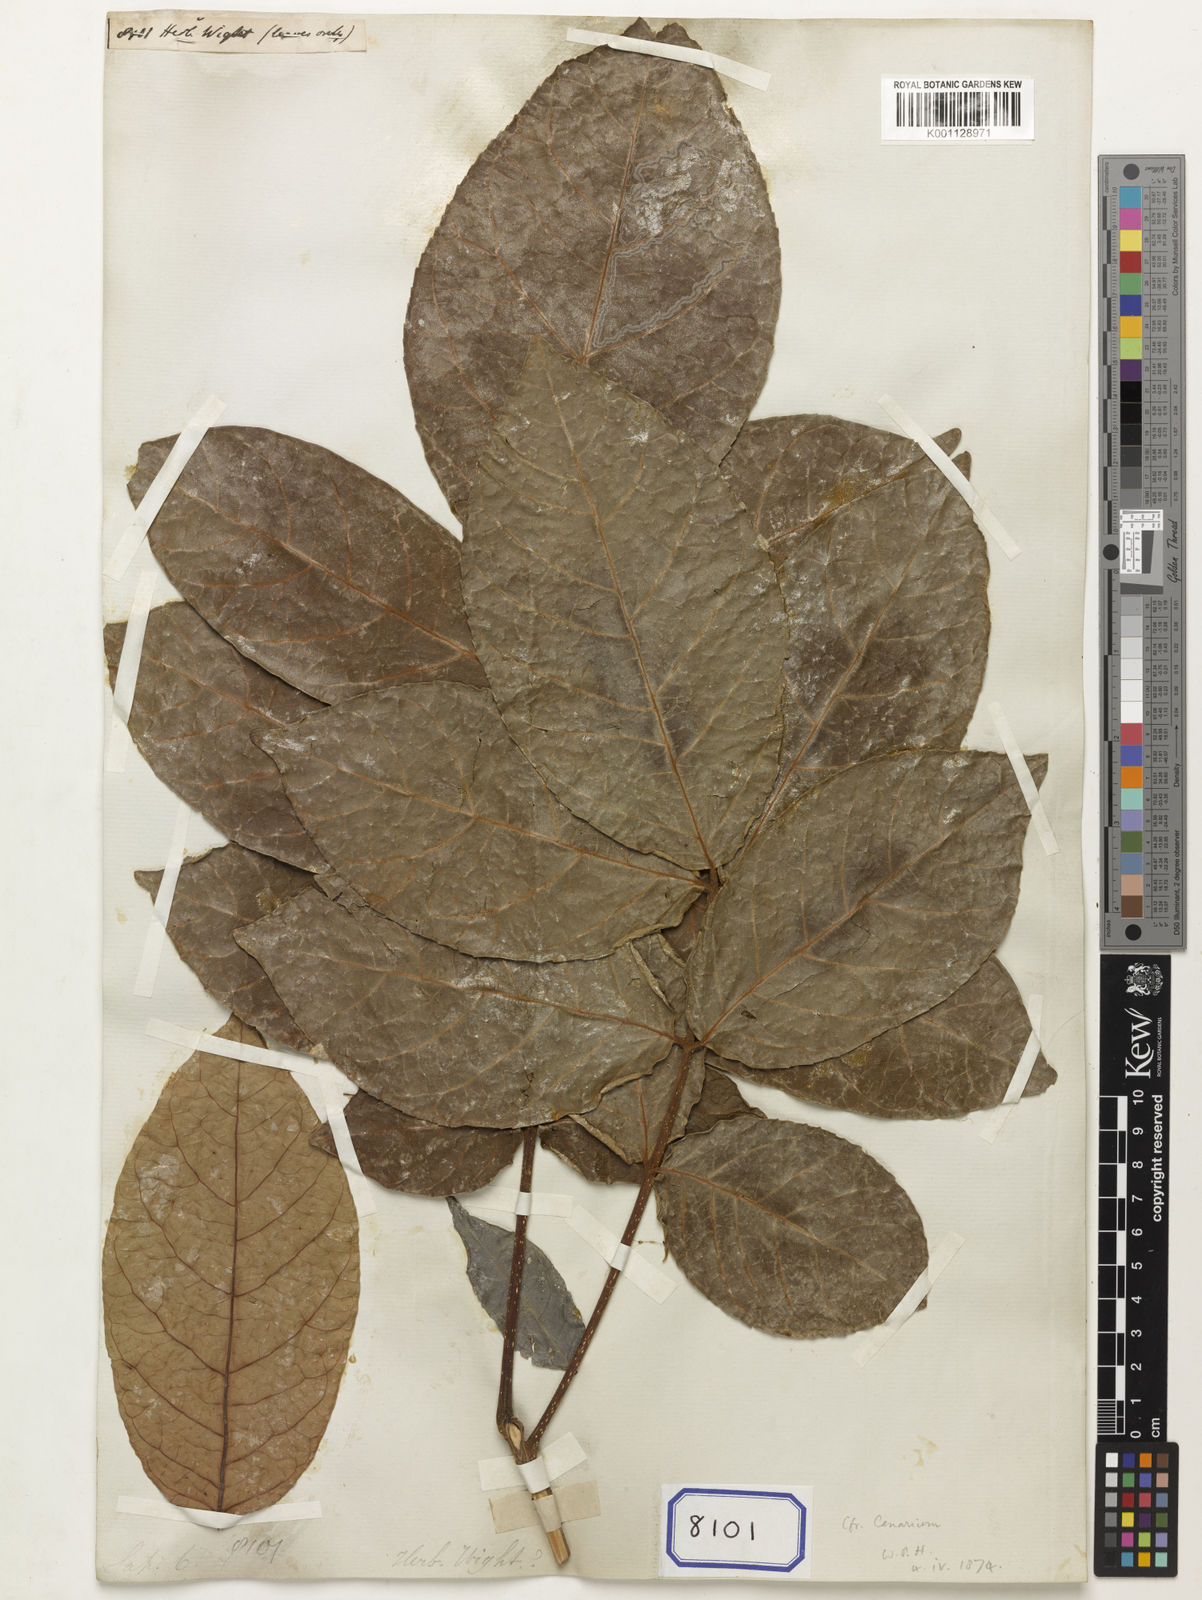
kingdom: Plantae
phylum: Tracheophyta
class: Magnoliopsida
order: Sapindales
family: Sapindaceae
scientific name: Sapindaceae
